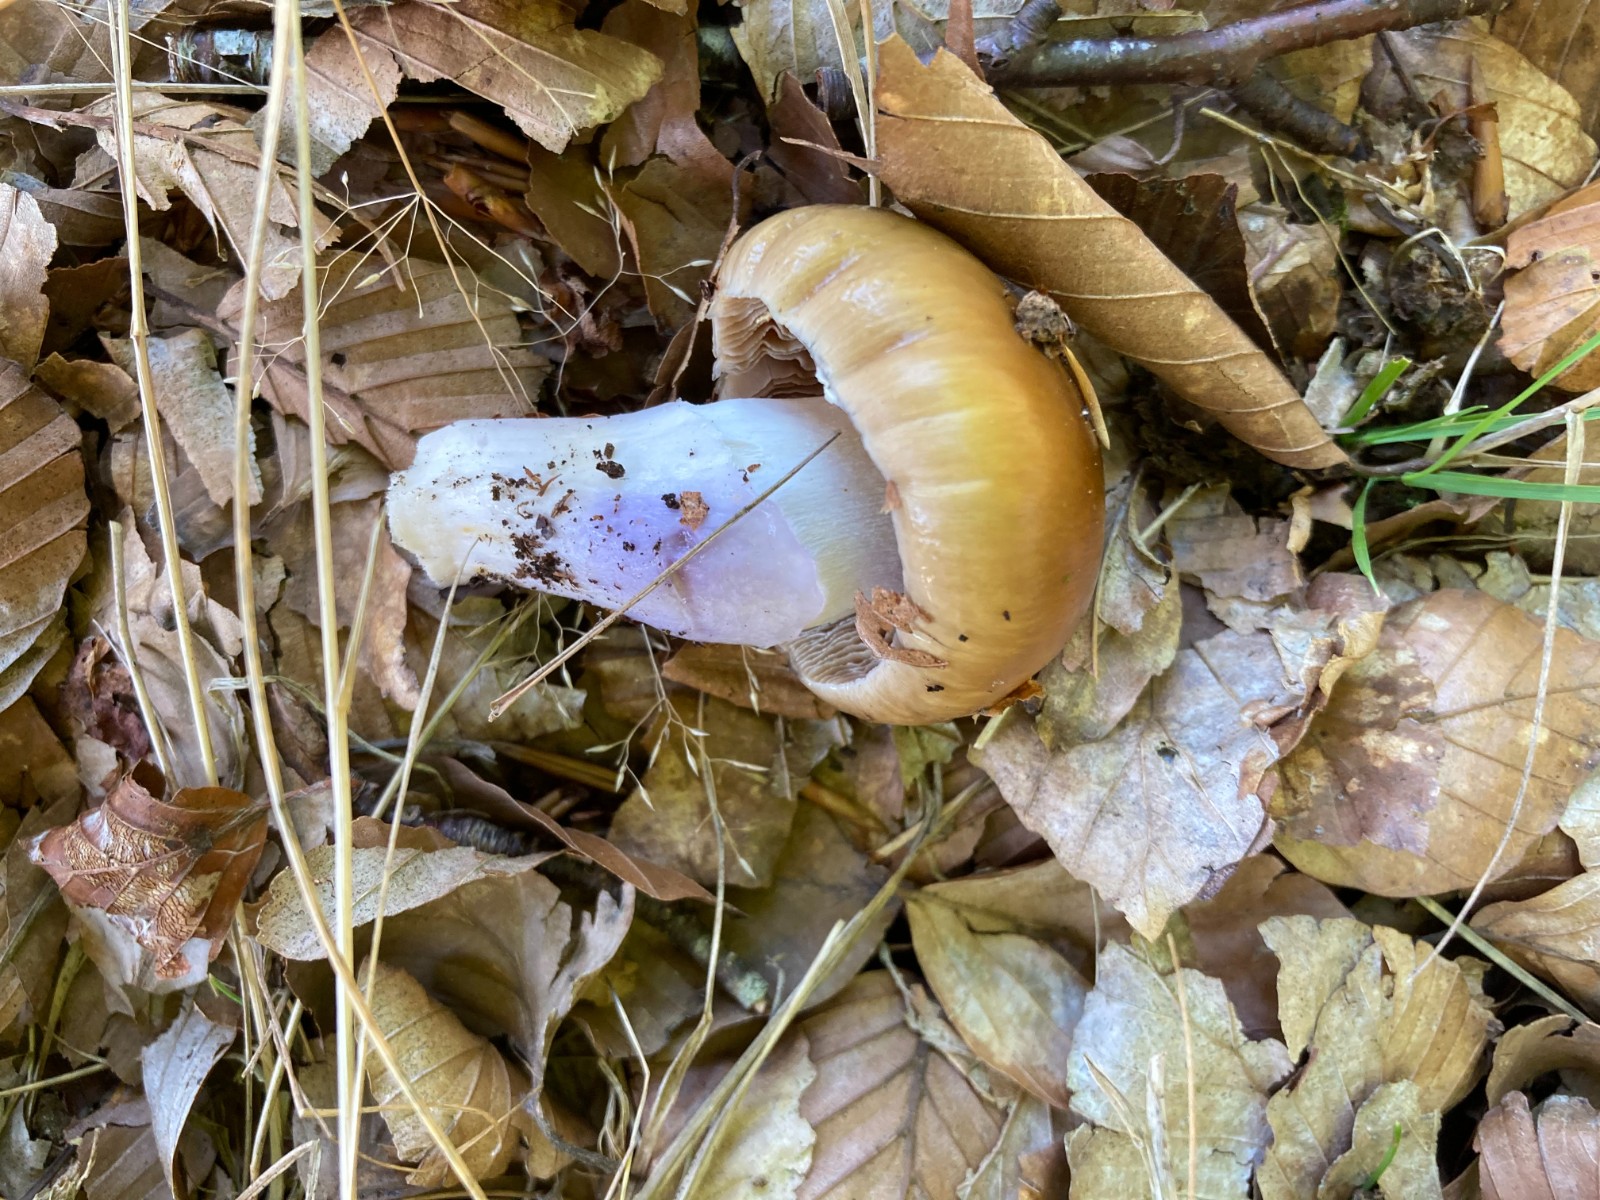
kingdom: Fungi
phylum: Basidiomycota
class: Agaricomycetes
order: Agaricales
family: Cortinariaceae
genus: Cortinarius
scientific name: Cortinarius
